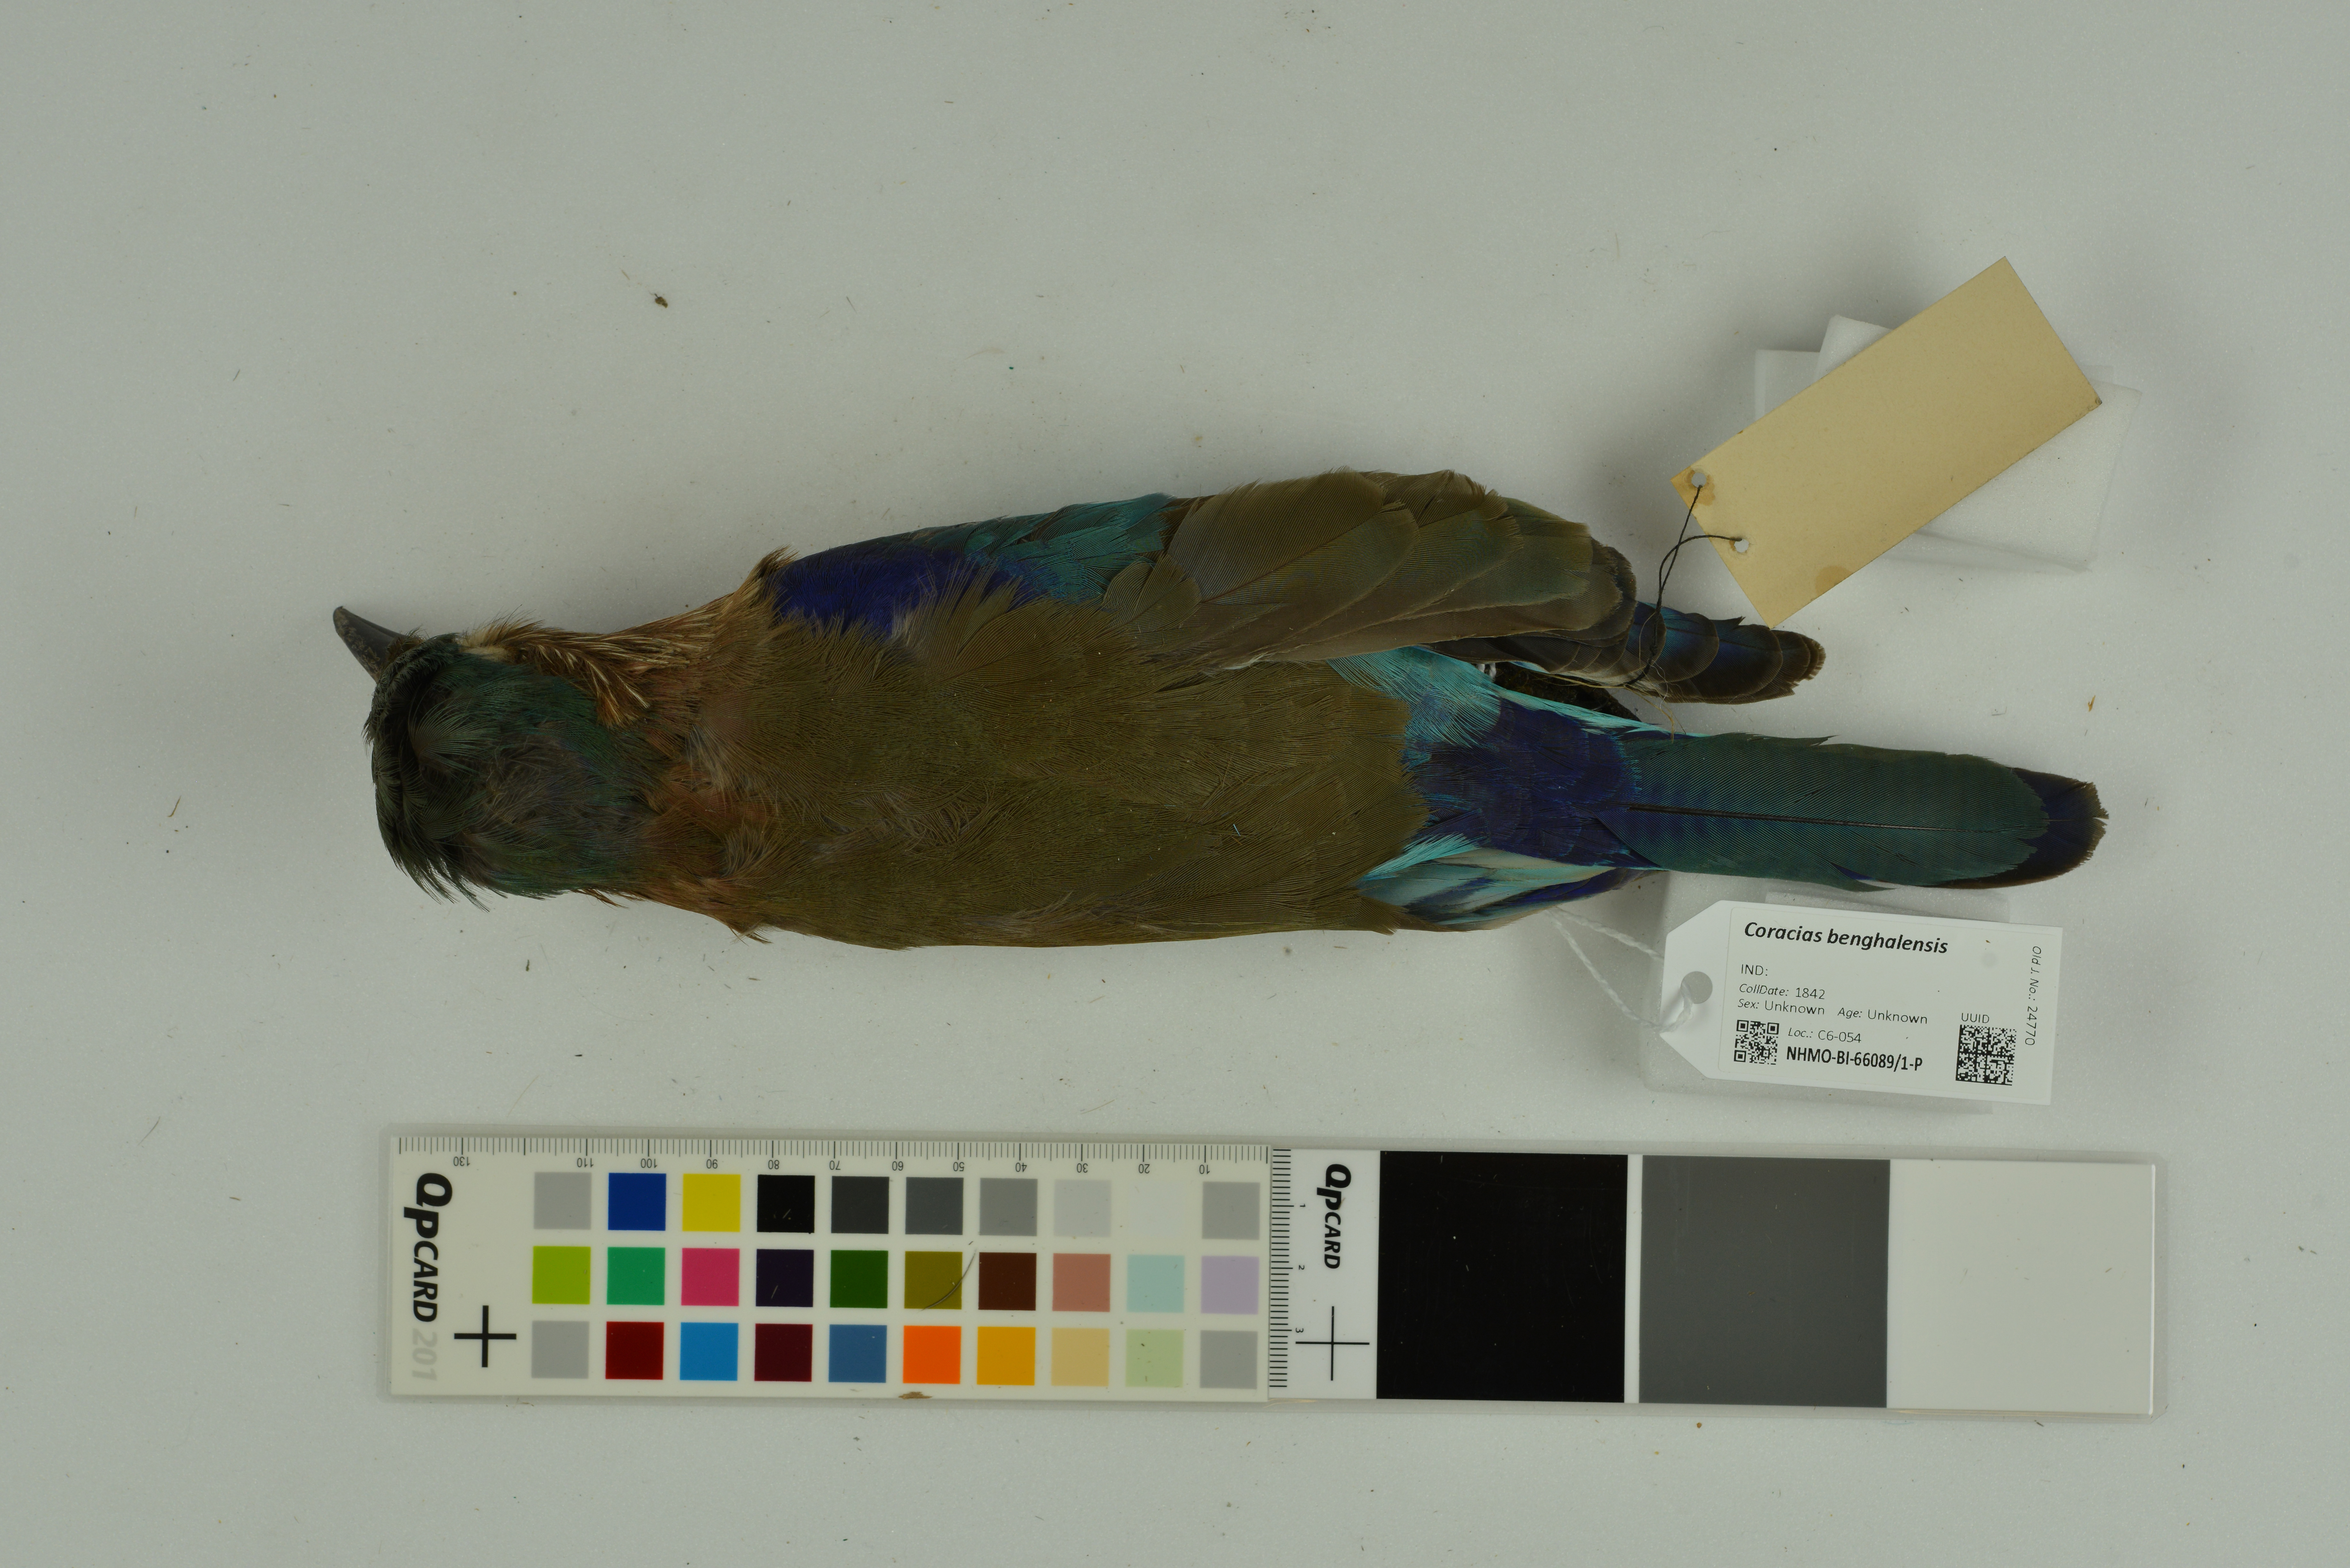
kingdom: Animalia
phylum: Chordata
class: Aves
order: Coraciiformes
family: Coraciidae
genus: Coracias
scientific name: Coracias benghalensis
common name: Indian roller
